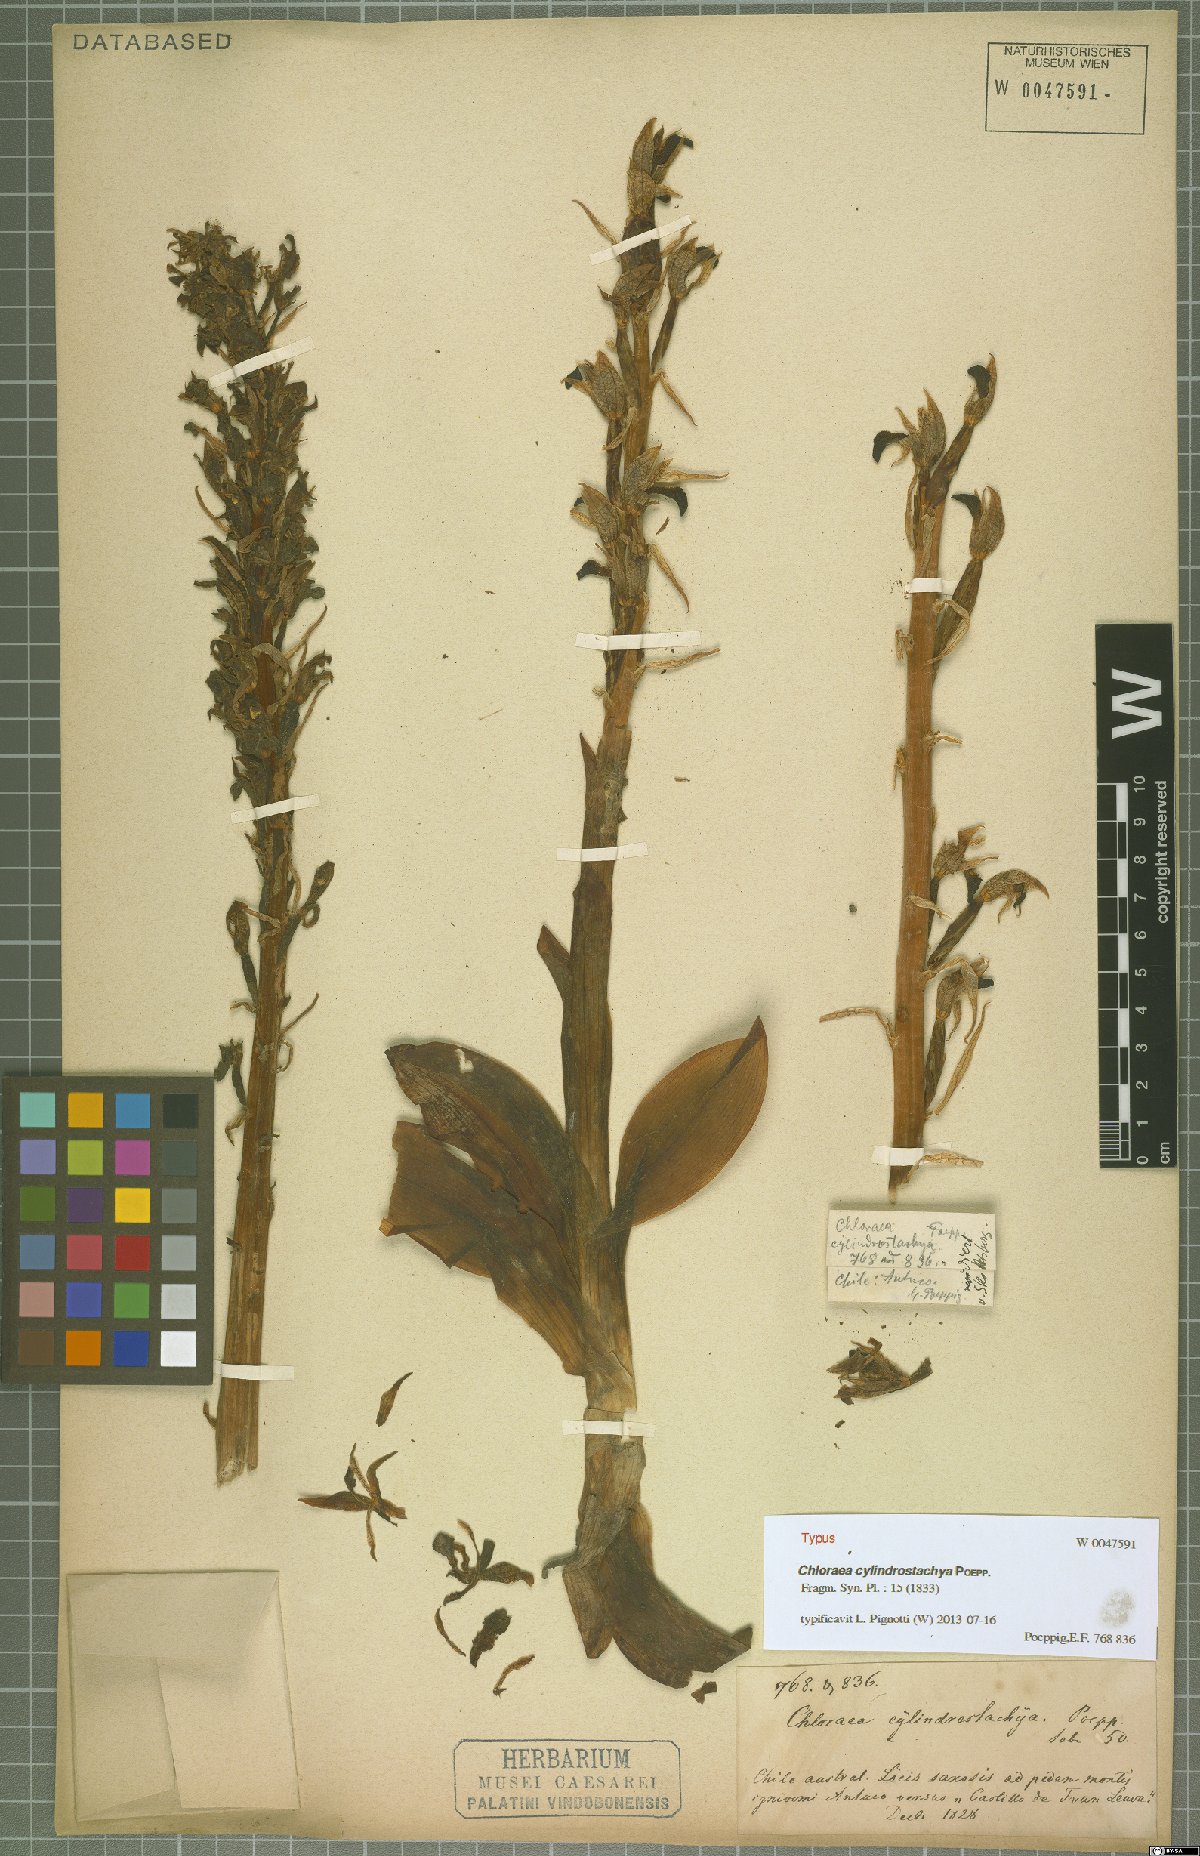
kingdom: Plantae
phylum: Tracheophyta
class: Liliopsida
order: Asparagales
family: Orchidaceae
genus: Chloraea
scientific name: Chloraea cylindrostachya
